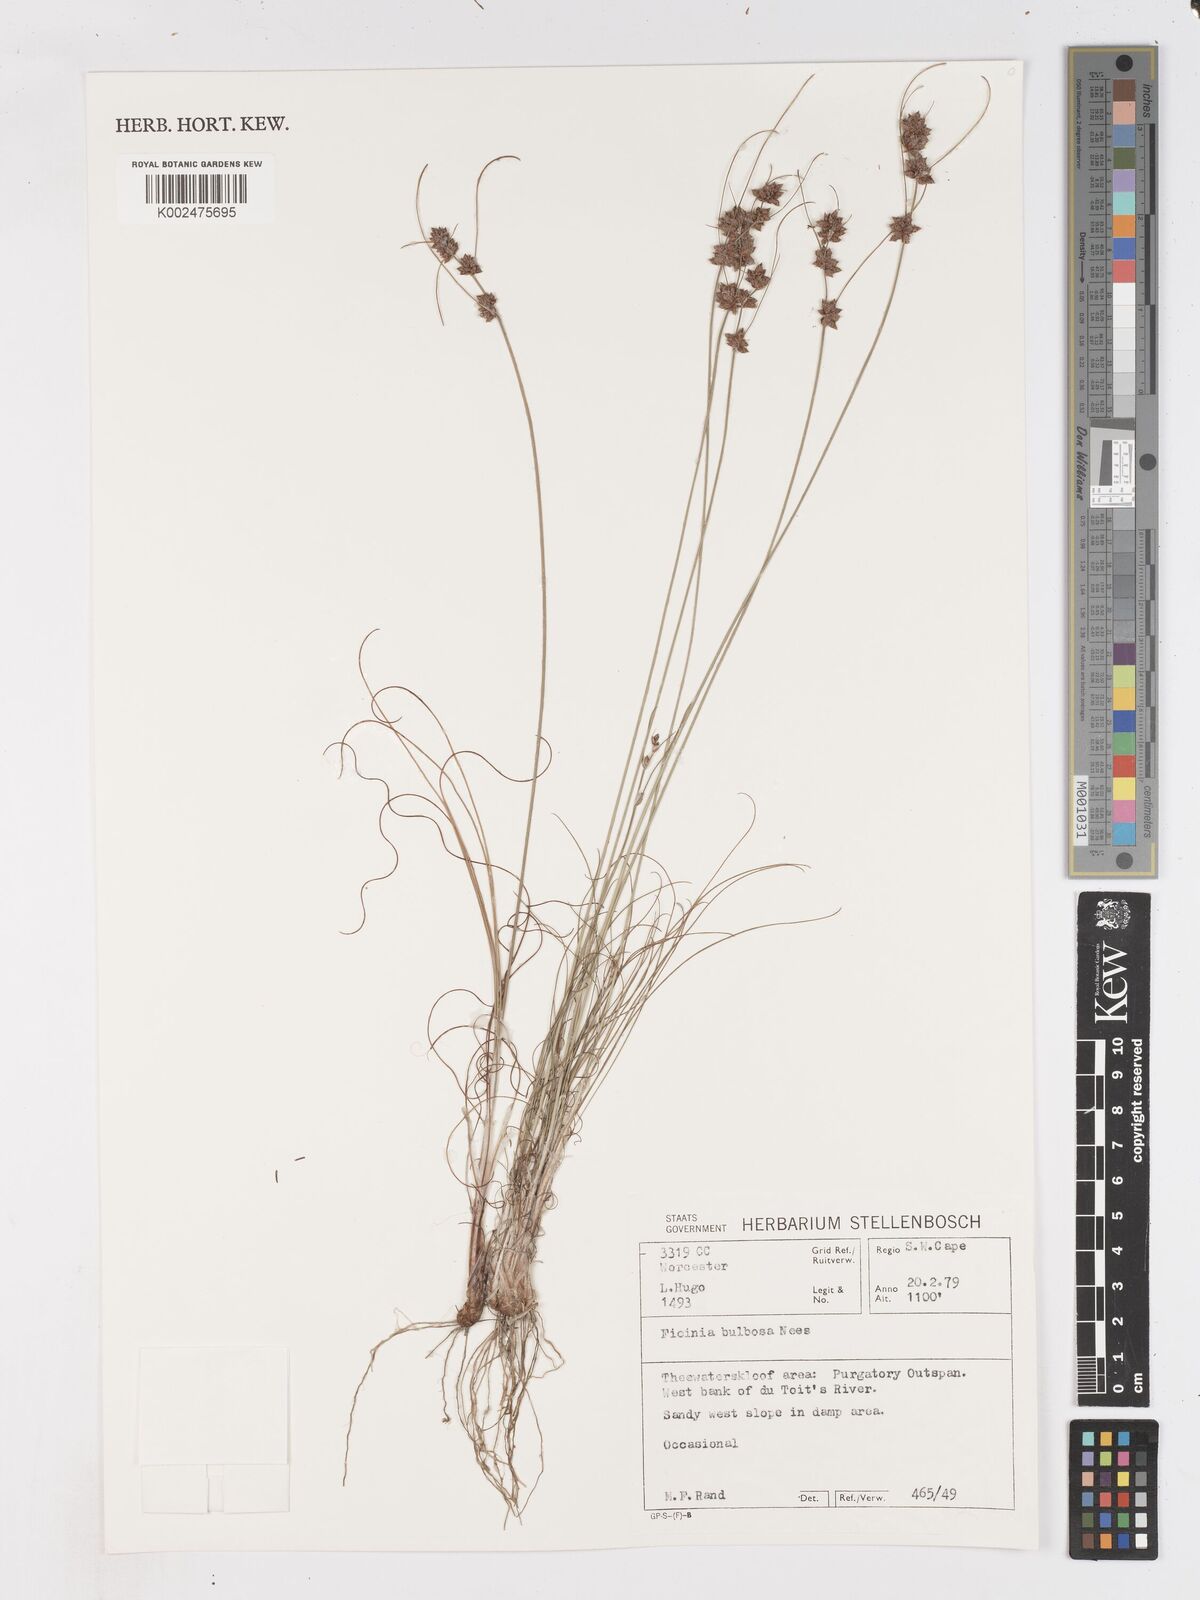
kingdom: Plantae
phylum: Tracheophyta
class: Liliopsida
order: Poales
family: Cyperaceae
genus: Ficinia
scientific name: Ficinia bulbosa
